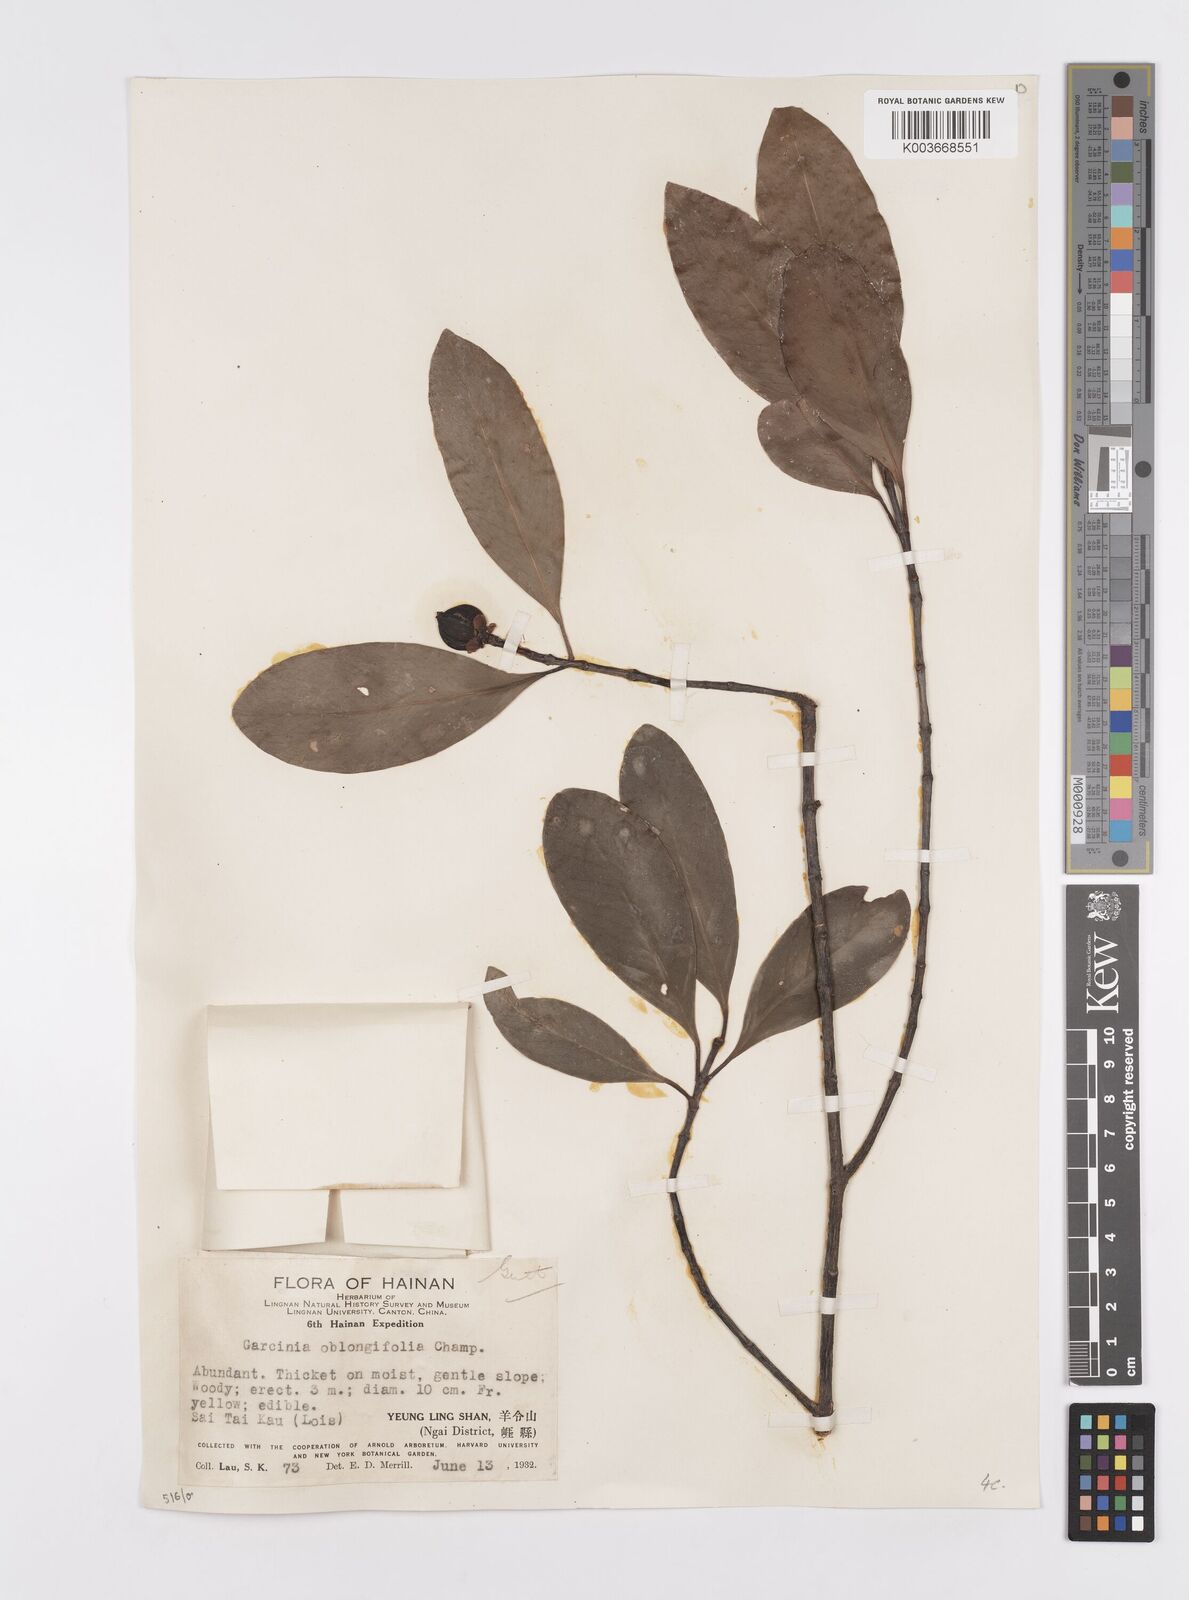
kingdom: Plantae
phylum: Tracheophyta
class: Magnoliopsida
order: Malpighiales
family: Clusiaceae
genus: Garcinia
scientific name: Garcinia oblongifolia
